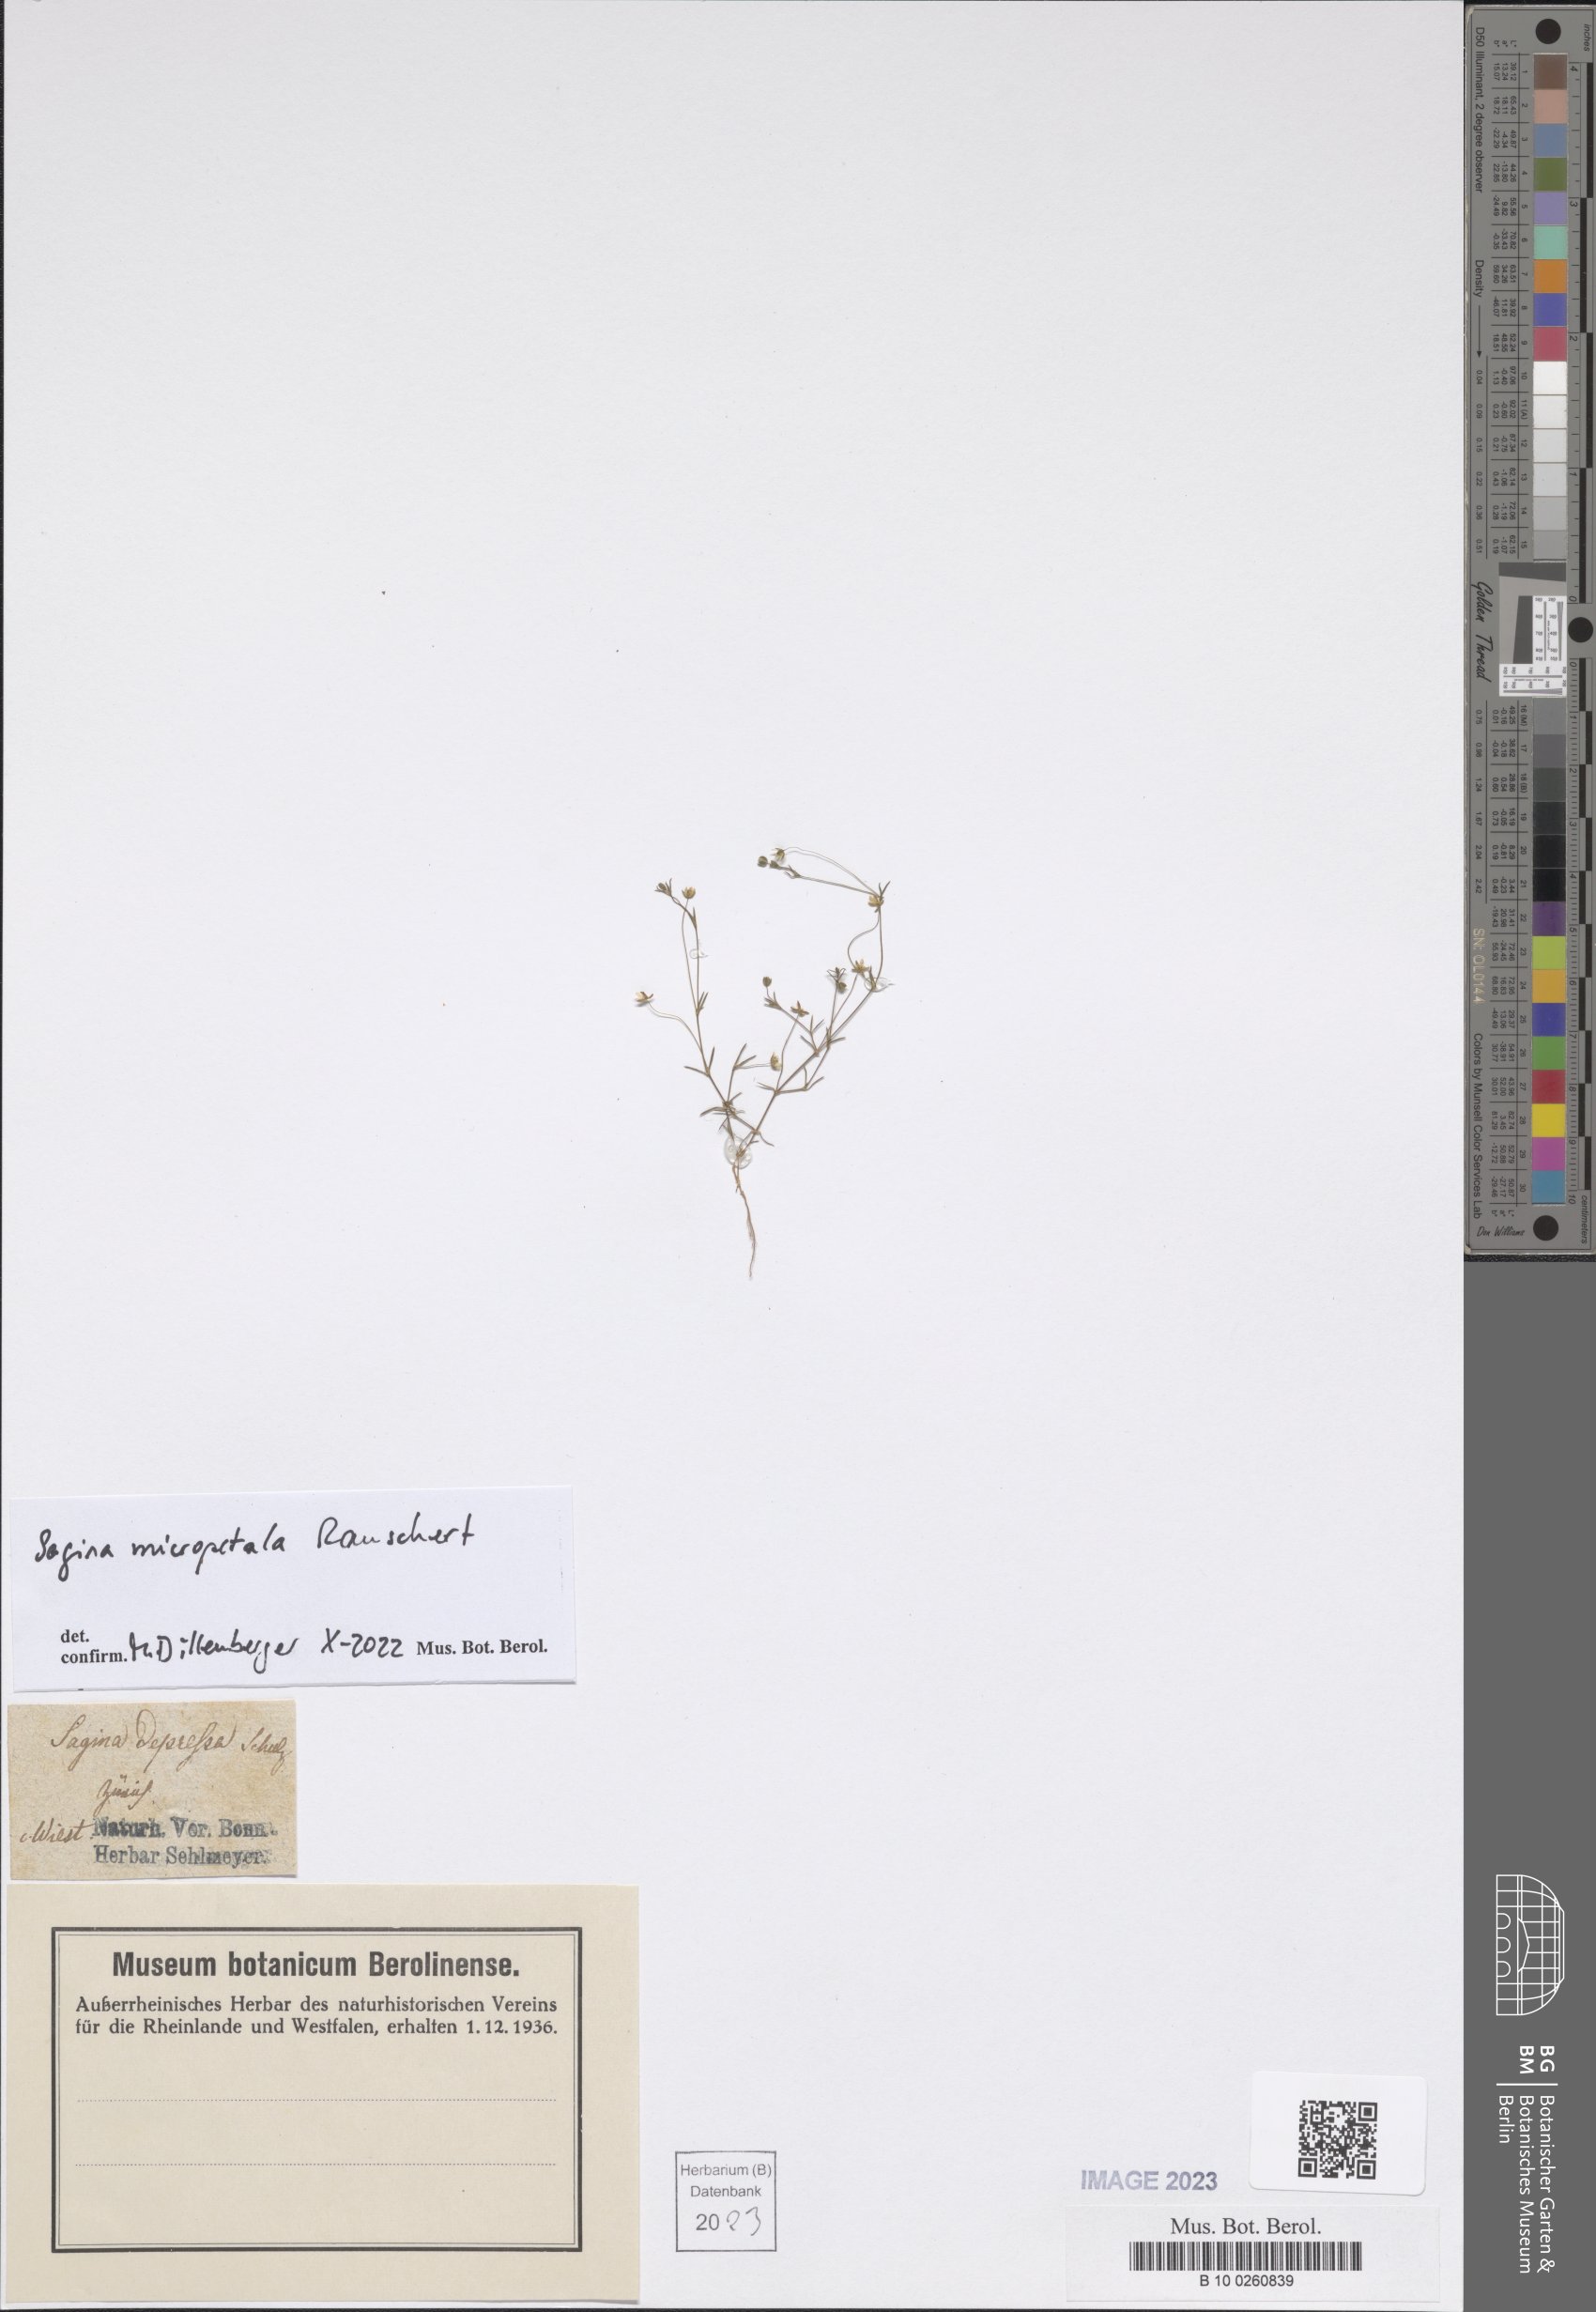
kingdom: Plantae
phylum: Tracheophyta
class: Magnoliopsida
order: Caryophyllales
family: Caryophyllaceae
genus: Sagina
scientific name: Sagina micropetala
